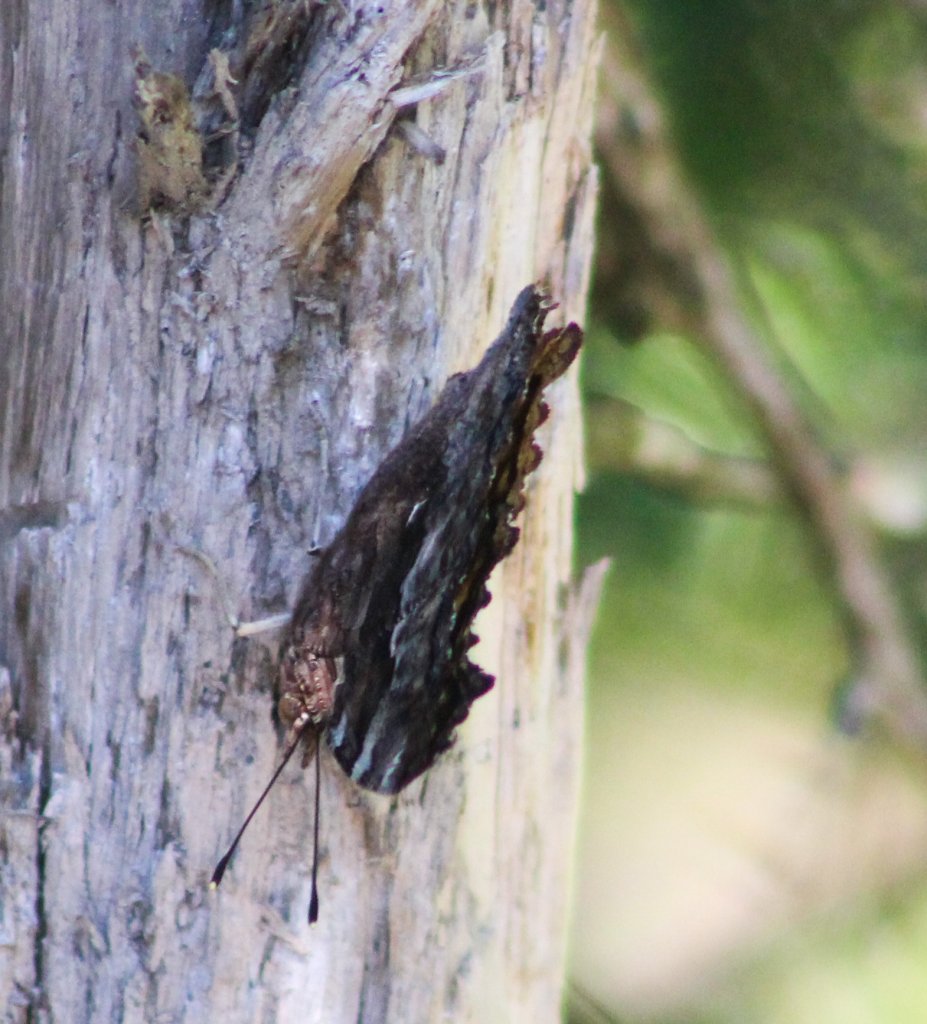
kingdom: Animalia
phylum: Arthropoda
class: Insecta
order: Lepidoptera
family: Nymphalidae
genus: Polygonia
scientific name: Polygonia faunus
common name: Green Comma
